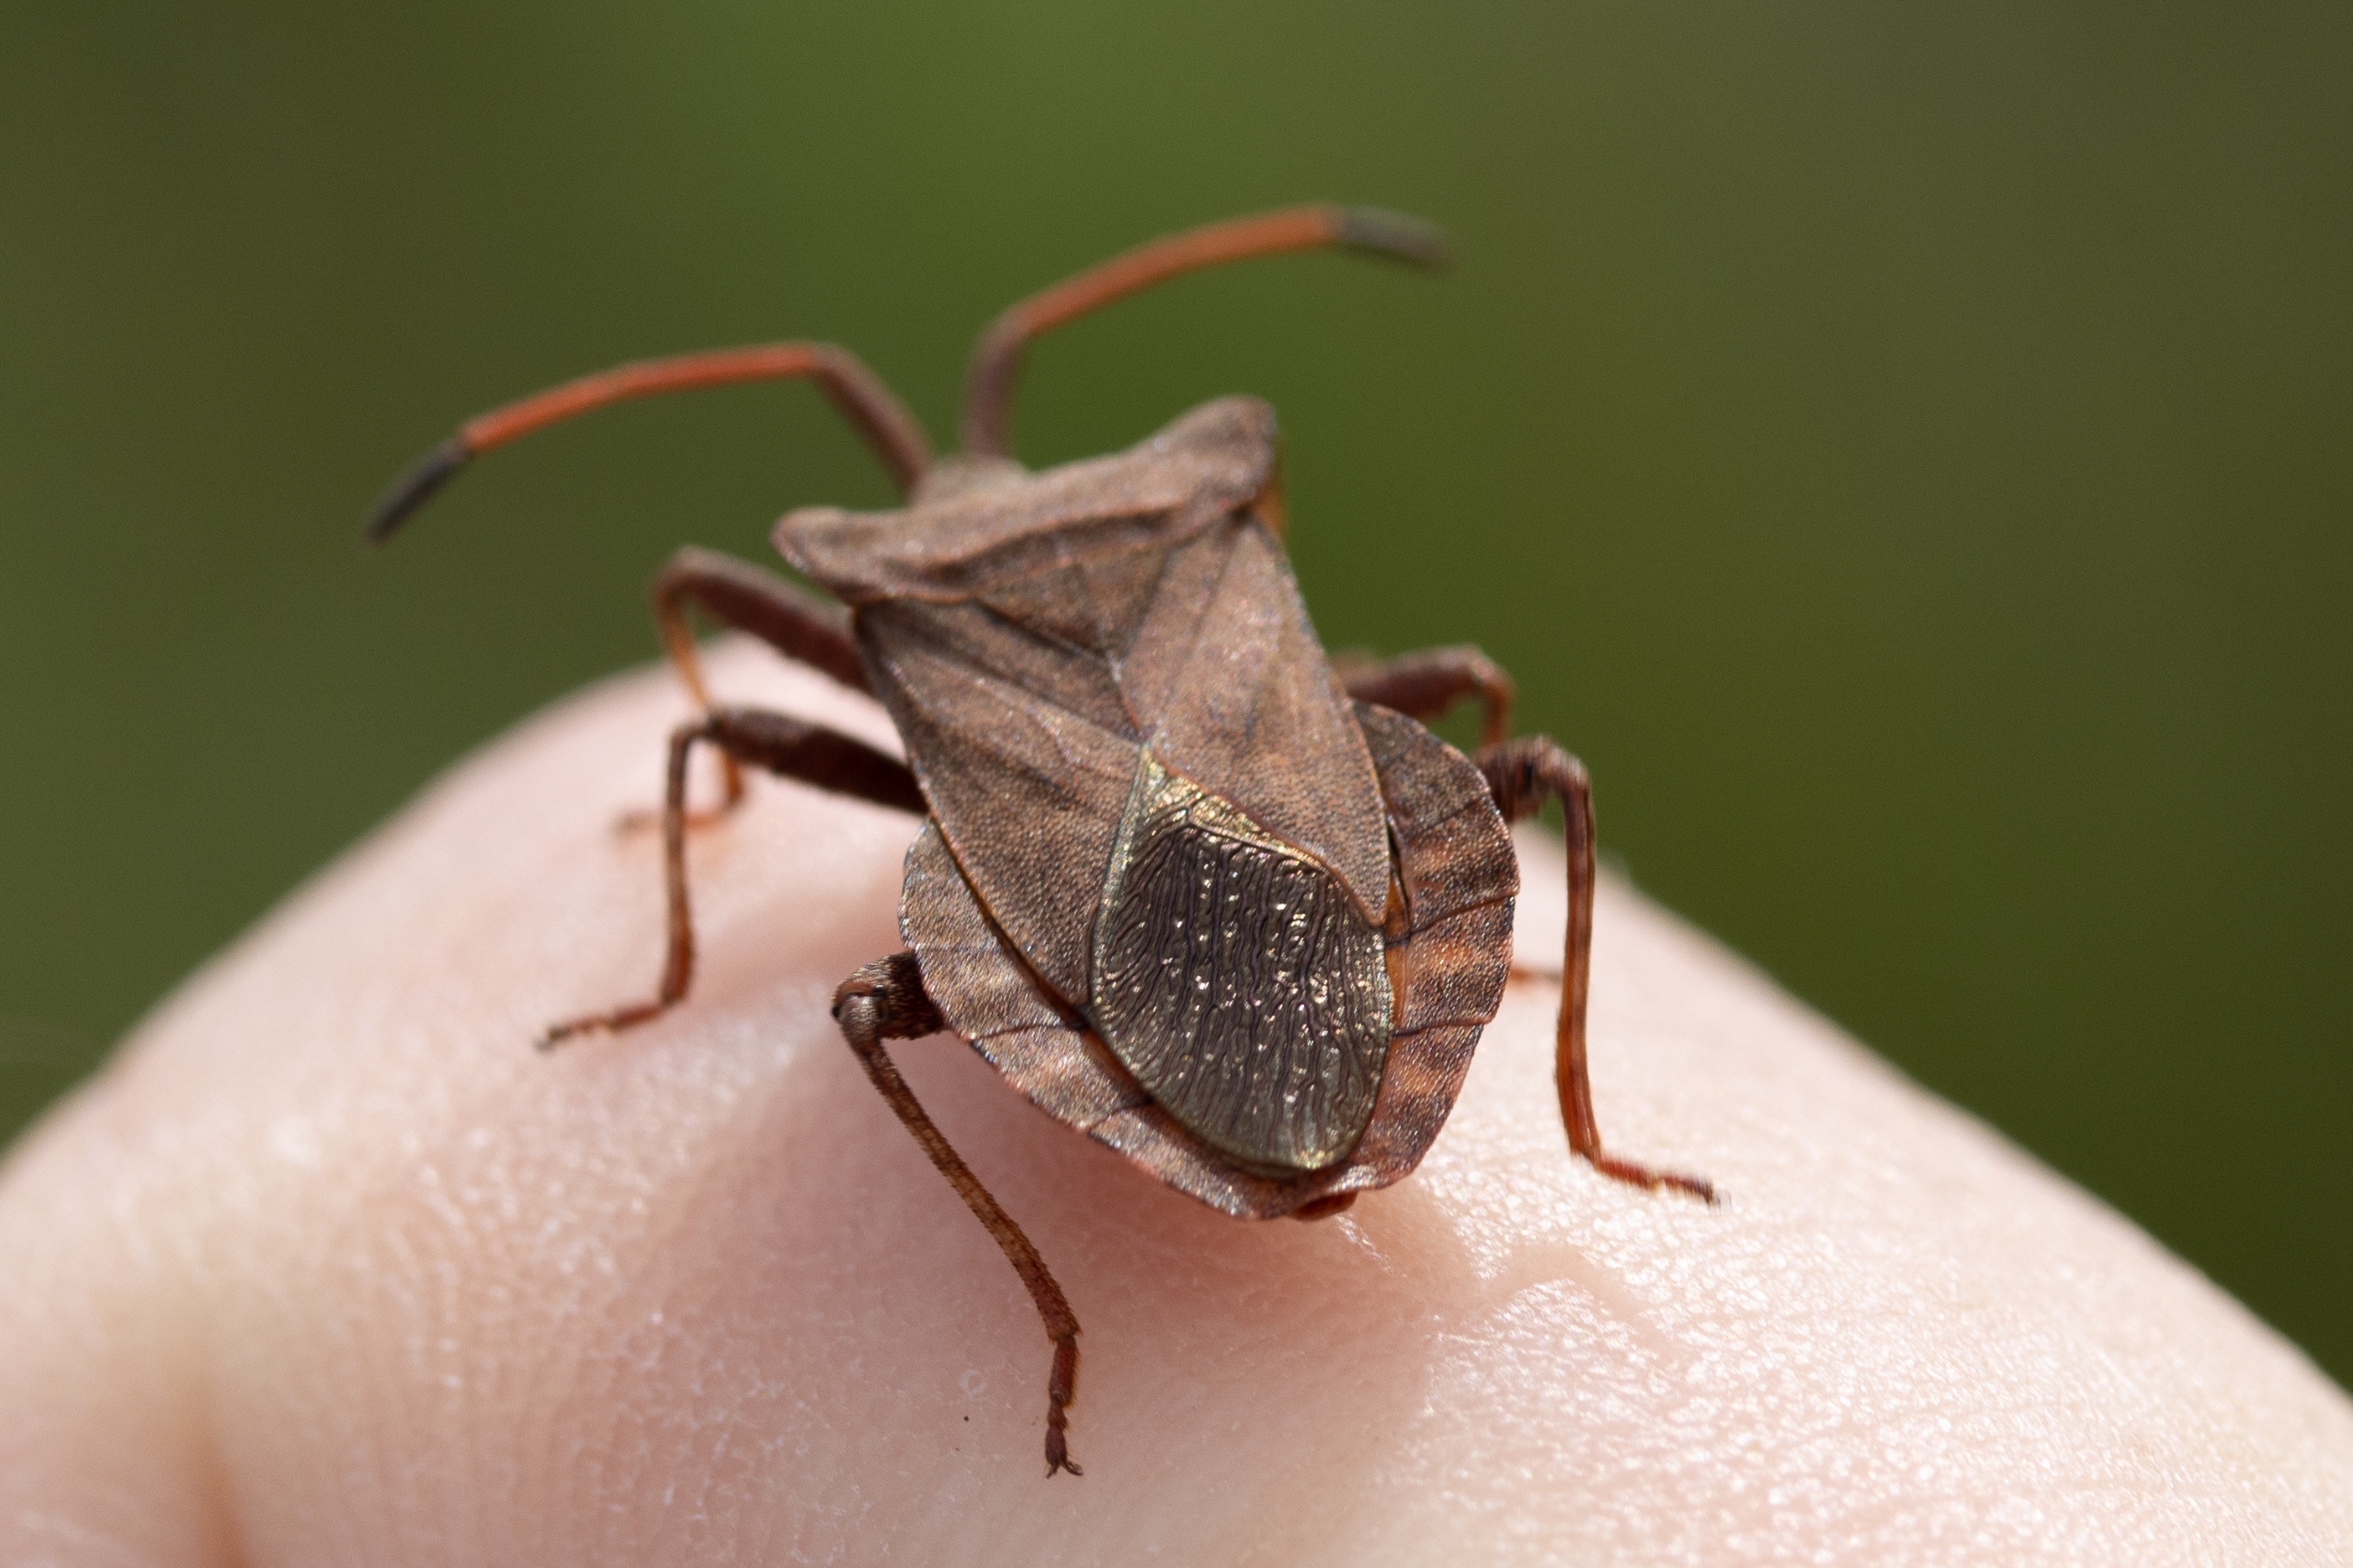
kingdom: Animalia
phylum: Arthropoda
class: Insecta
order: Hemiptera
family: Coreidae
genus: Coreus
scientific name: Coreus marginatus
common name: Skræppetæge
